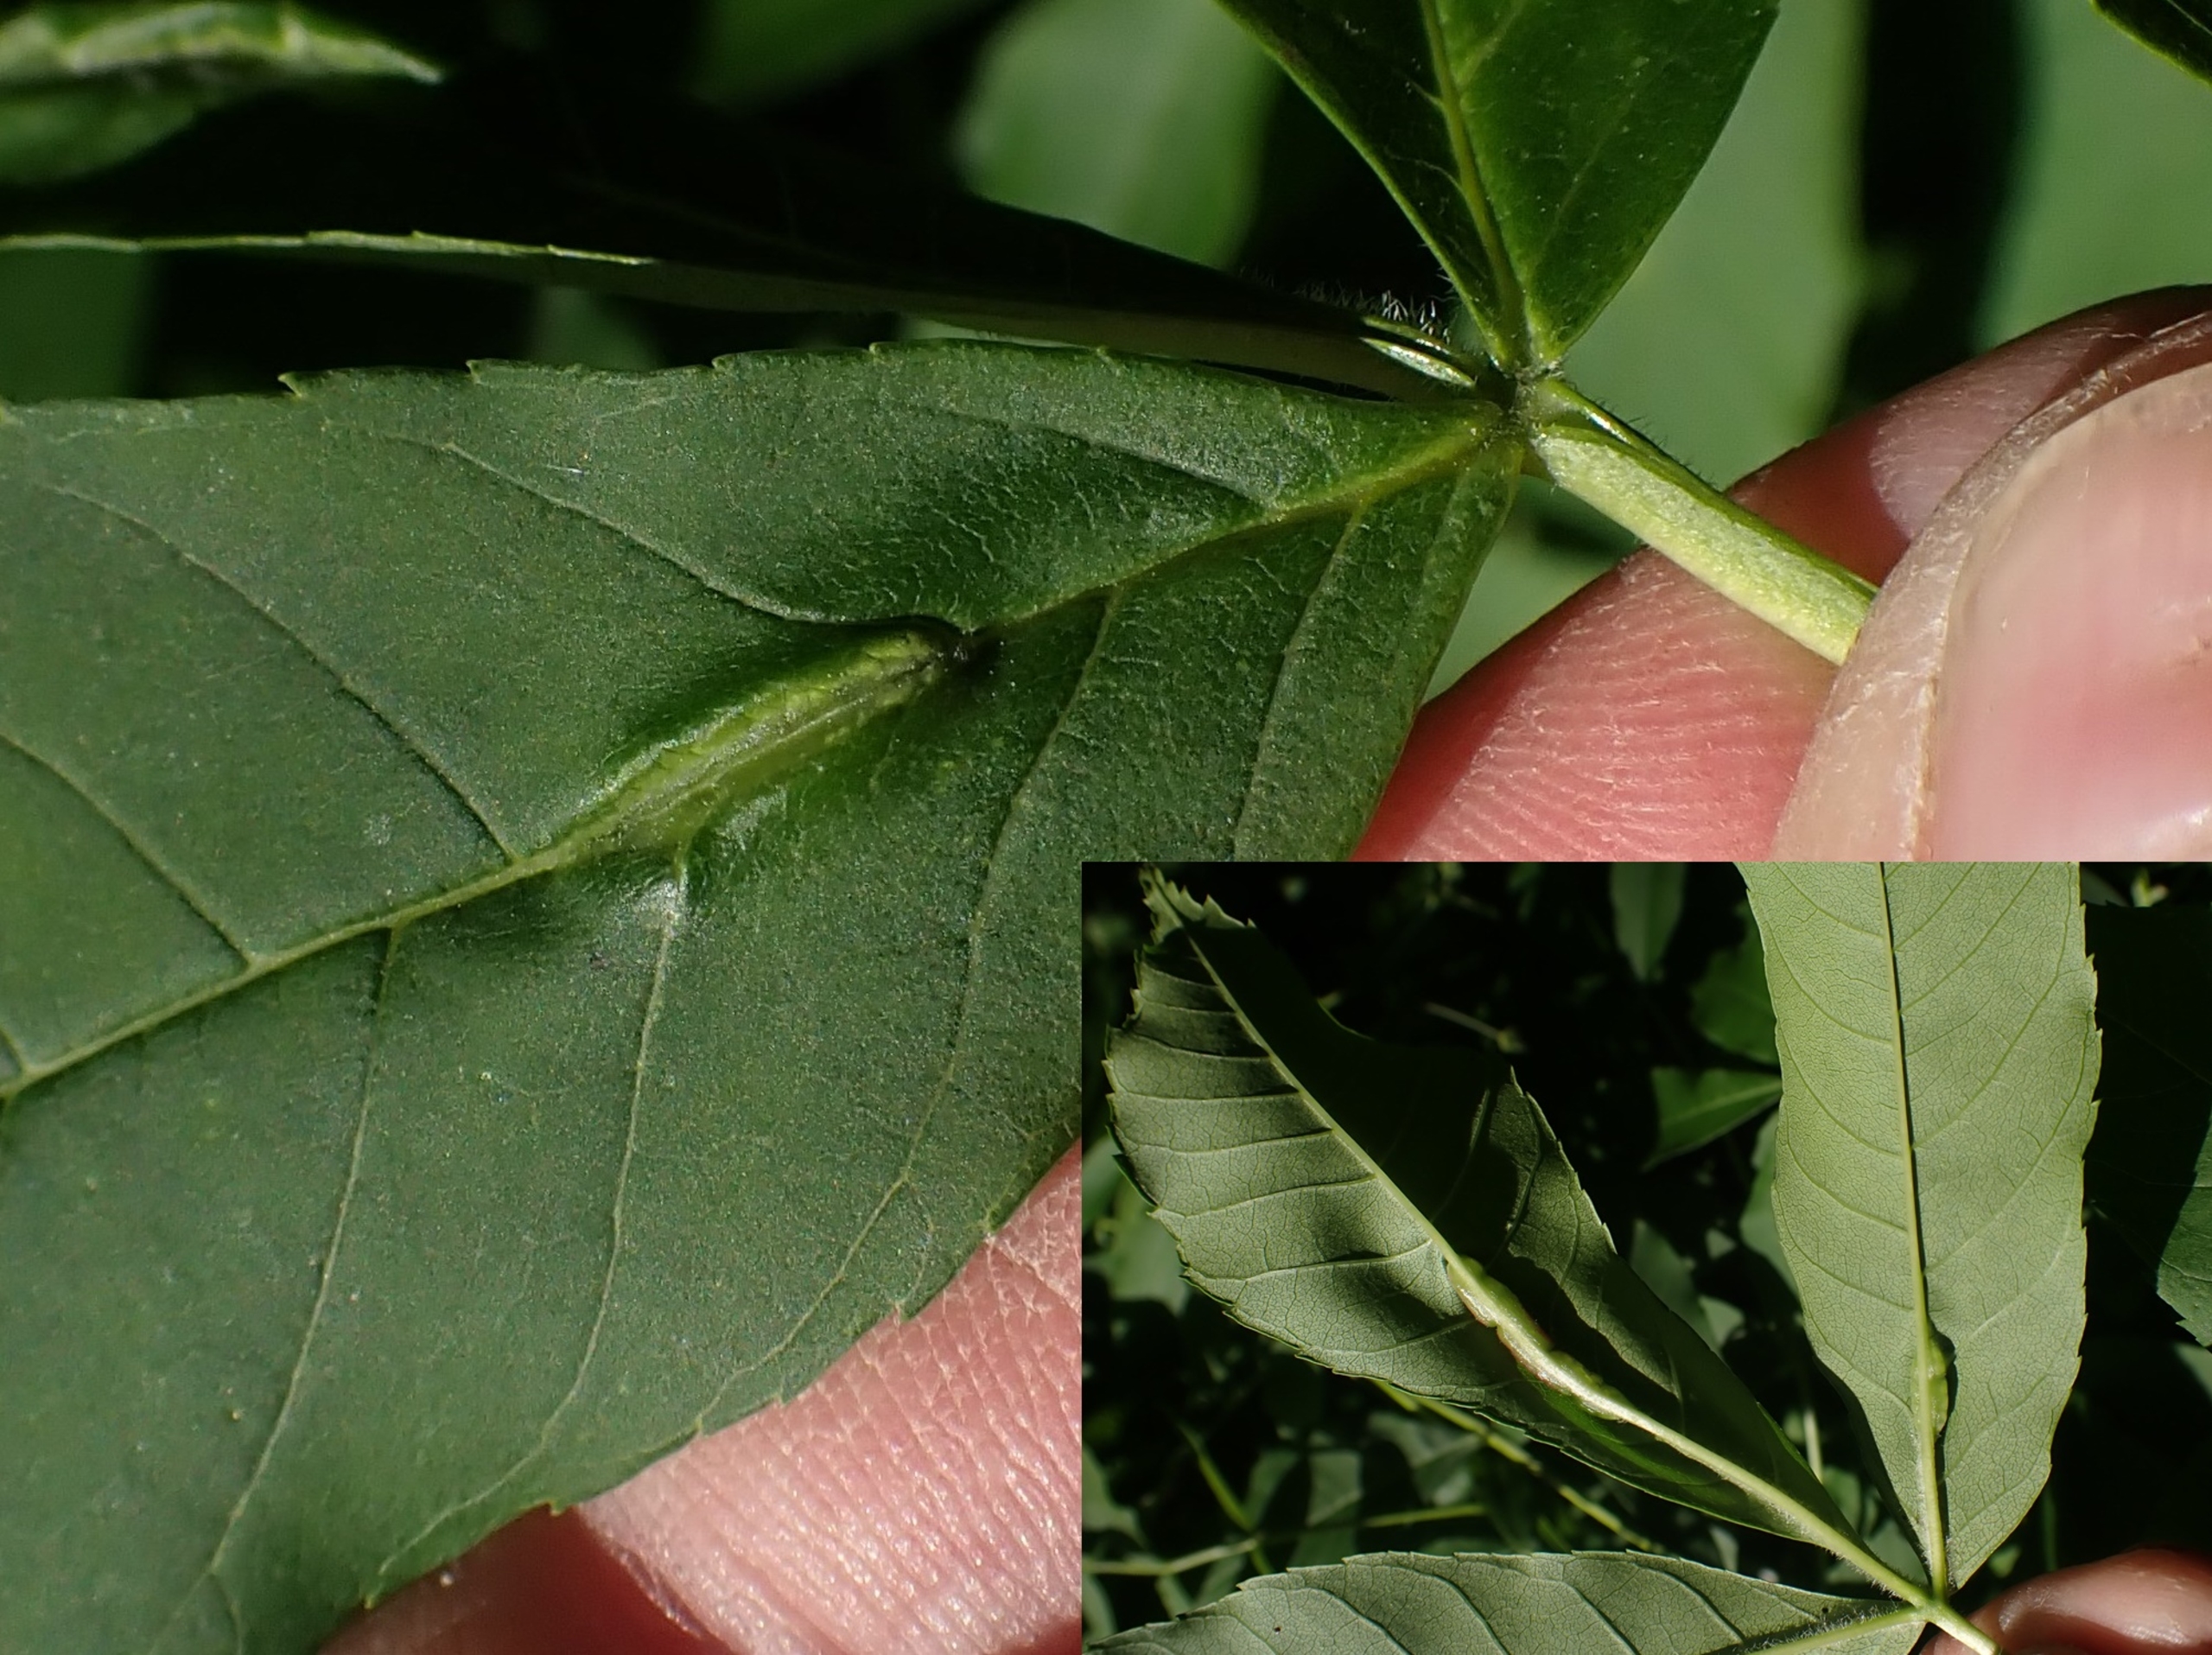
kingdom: Animalia
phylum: Arthropoda
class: Insecta
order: Diptera
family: Cecidomyiidae
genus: Dasineura
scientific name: Dasineura fraxini
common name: Orange askebladgalmyg
